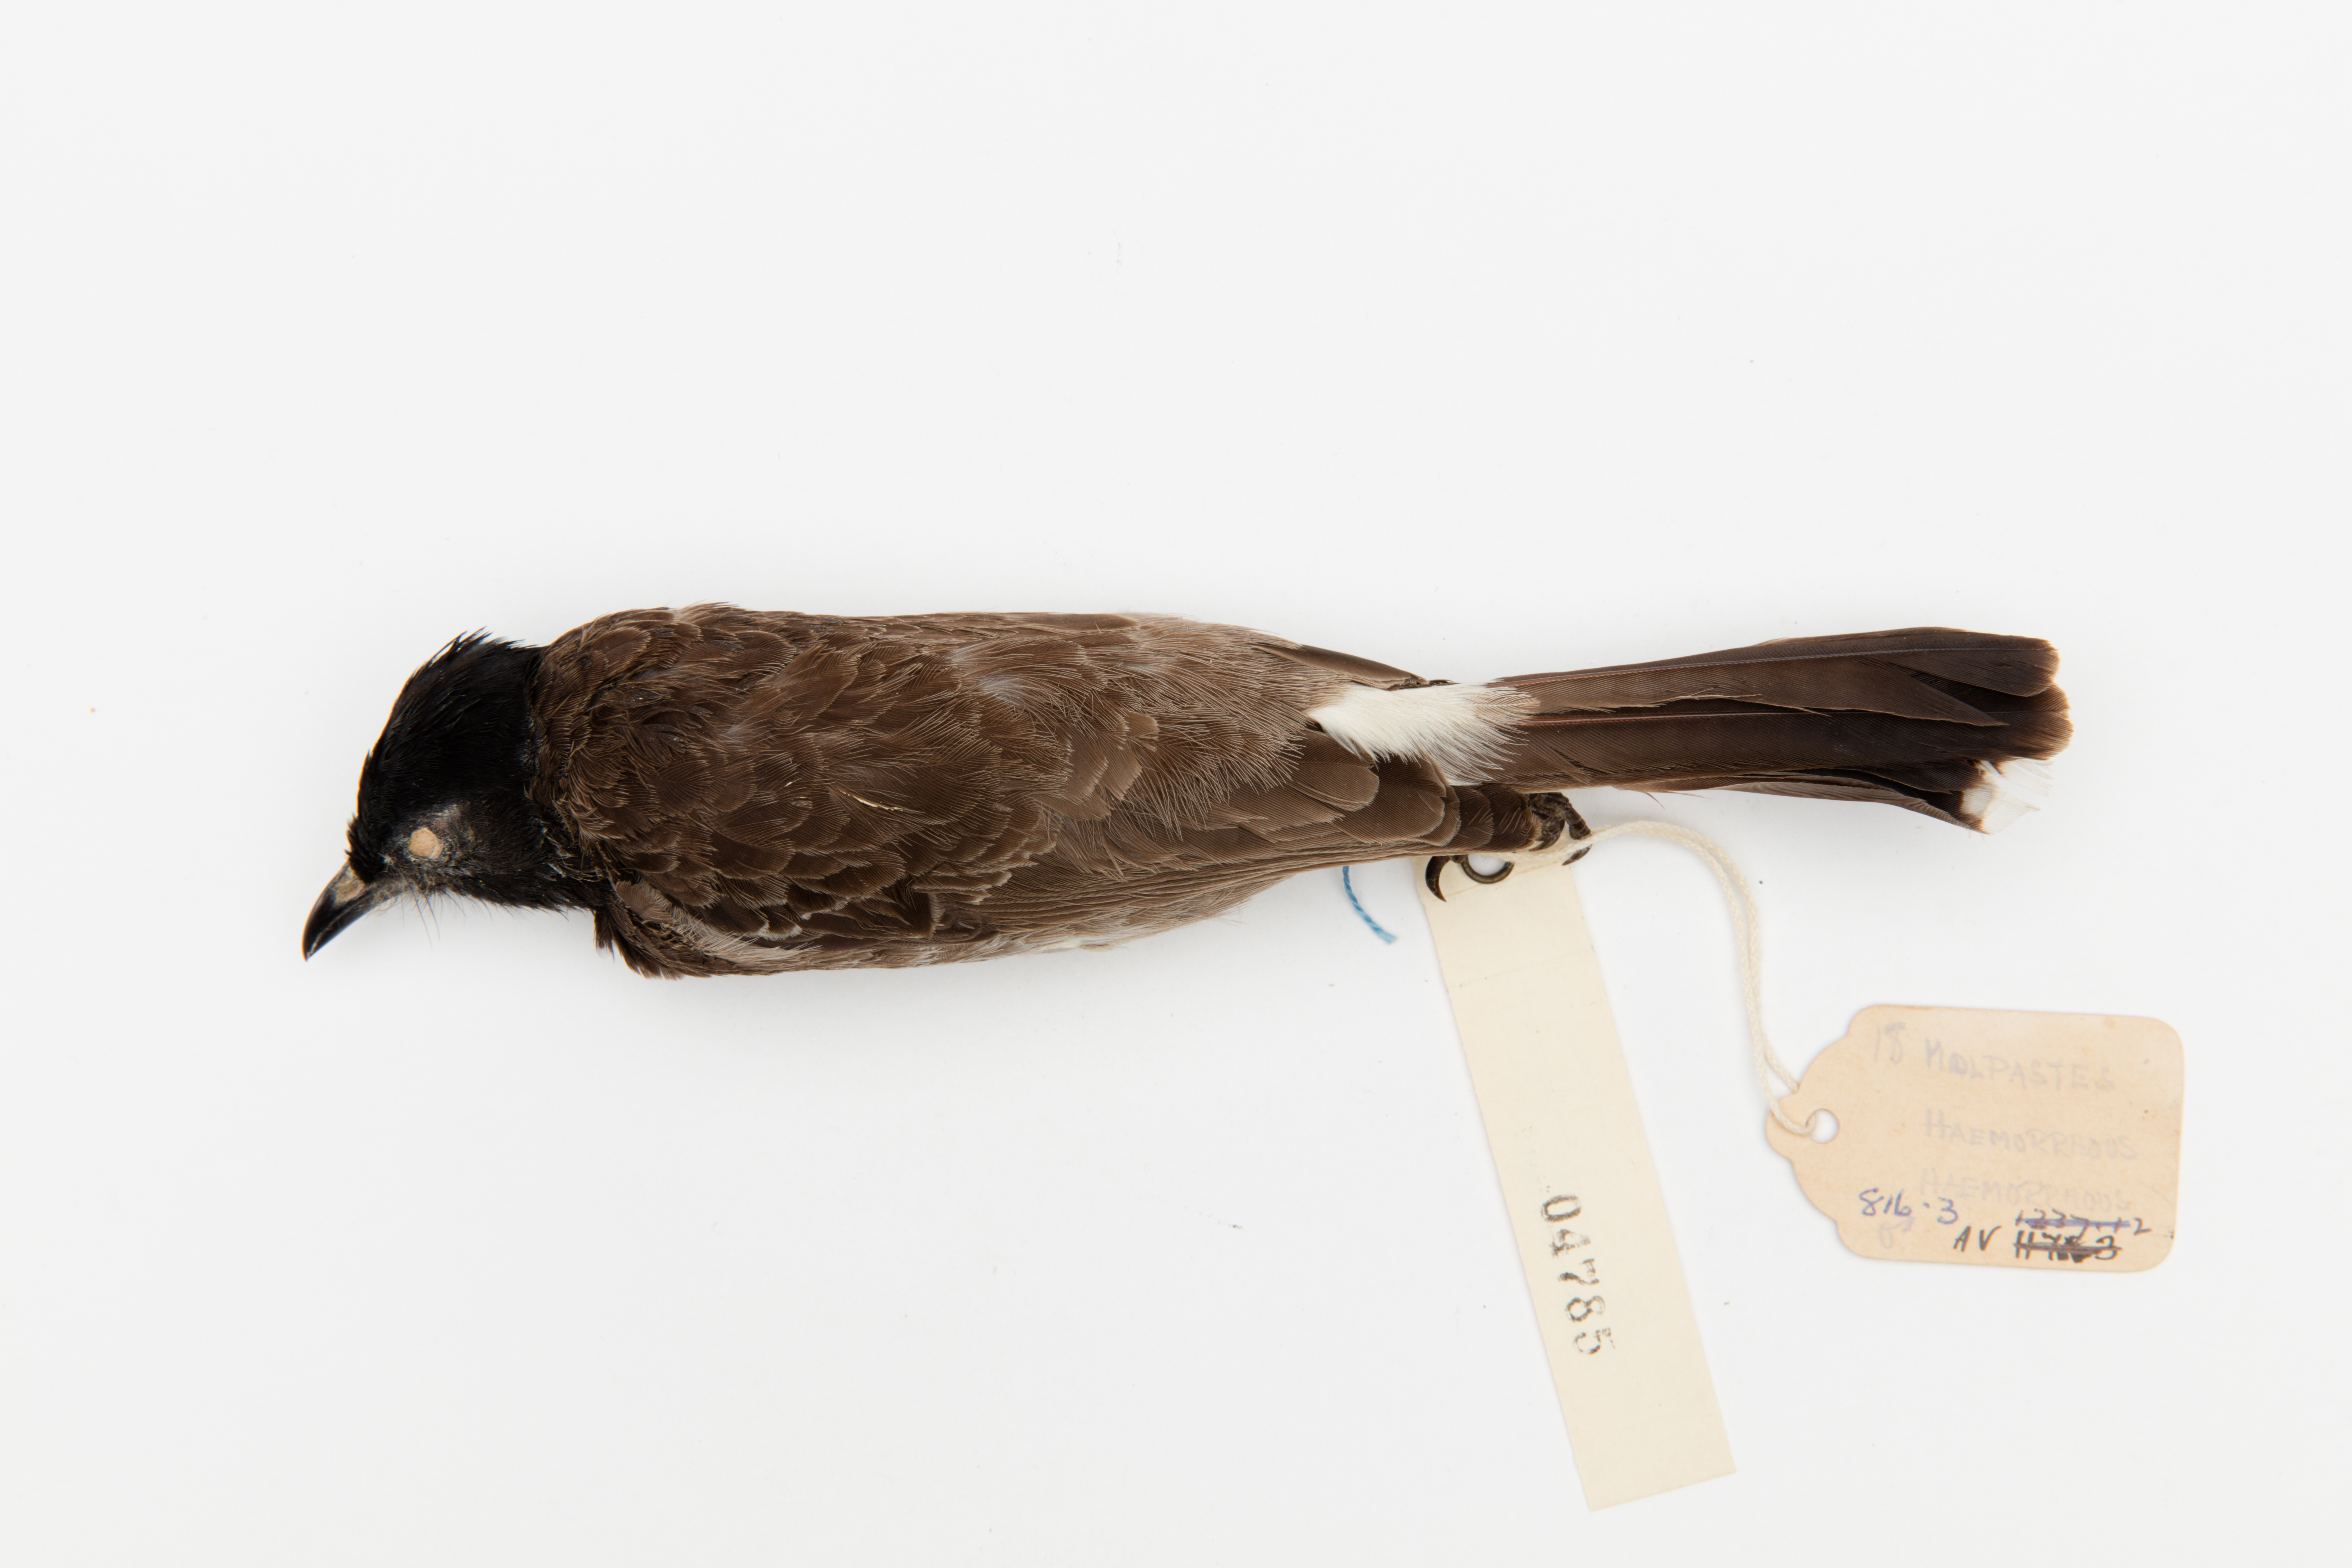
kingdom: Animalia
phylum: Chordata
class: Aves
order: Passeriformes
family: Pycnonotidae
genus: Pycnonotus
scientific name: Pycnonotus cafer
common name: Red-vented bulbul
